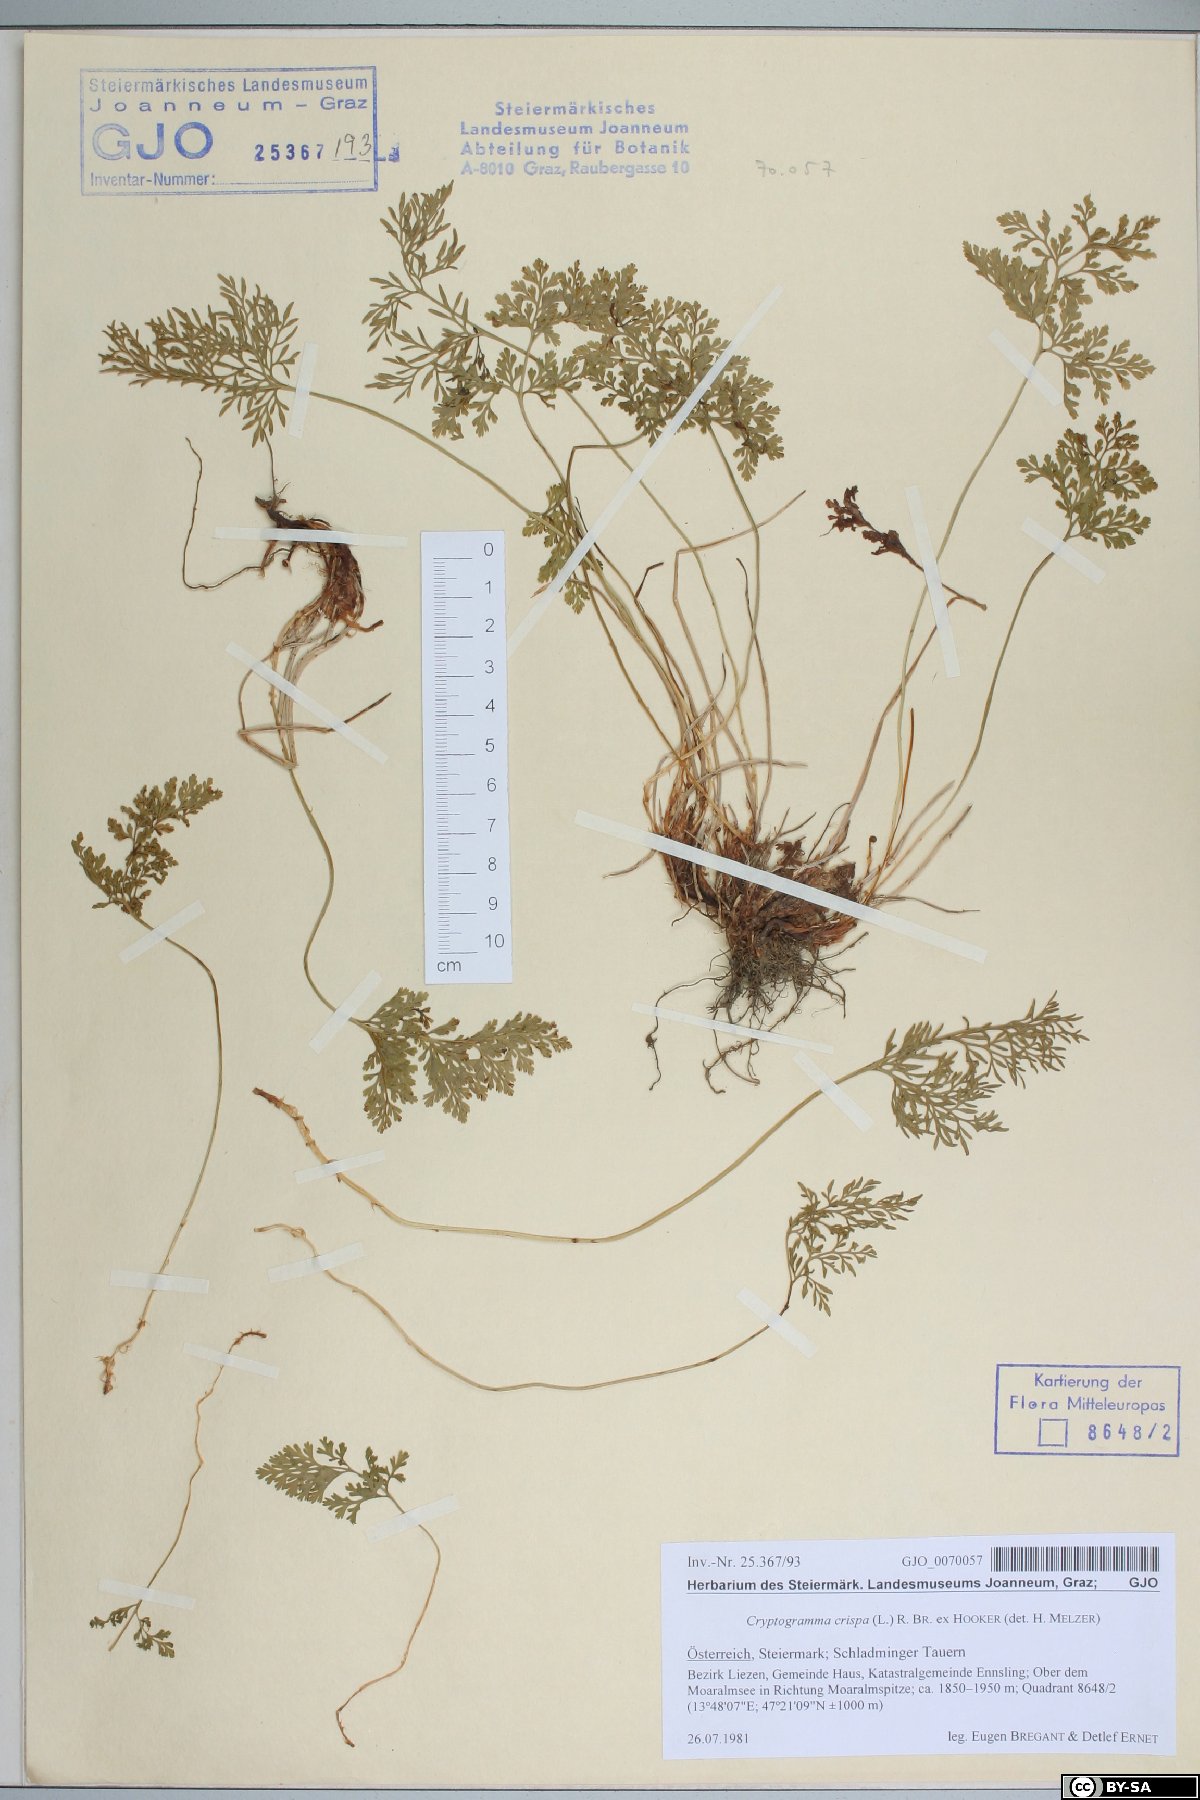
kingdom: Plantae
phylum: Tracheophyta
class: Polypodiopsida
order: Polypodiales
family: Pteridaceae
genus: Cryptogramma
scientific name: Cryptogramma crispa
